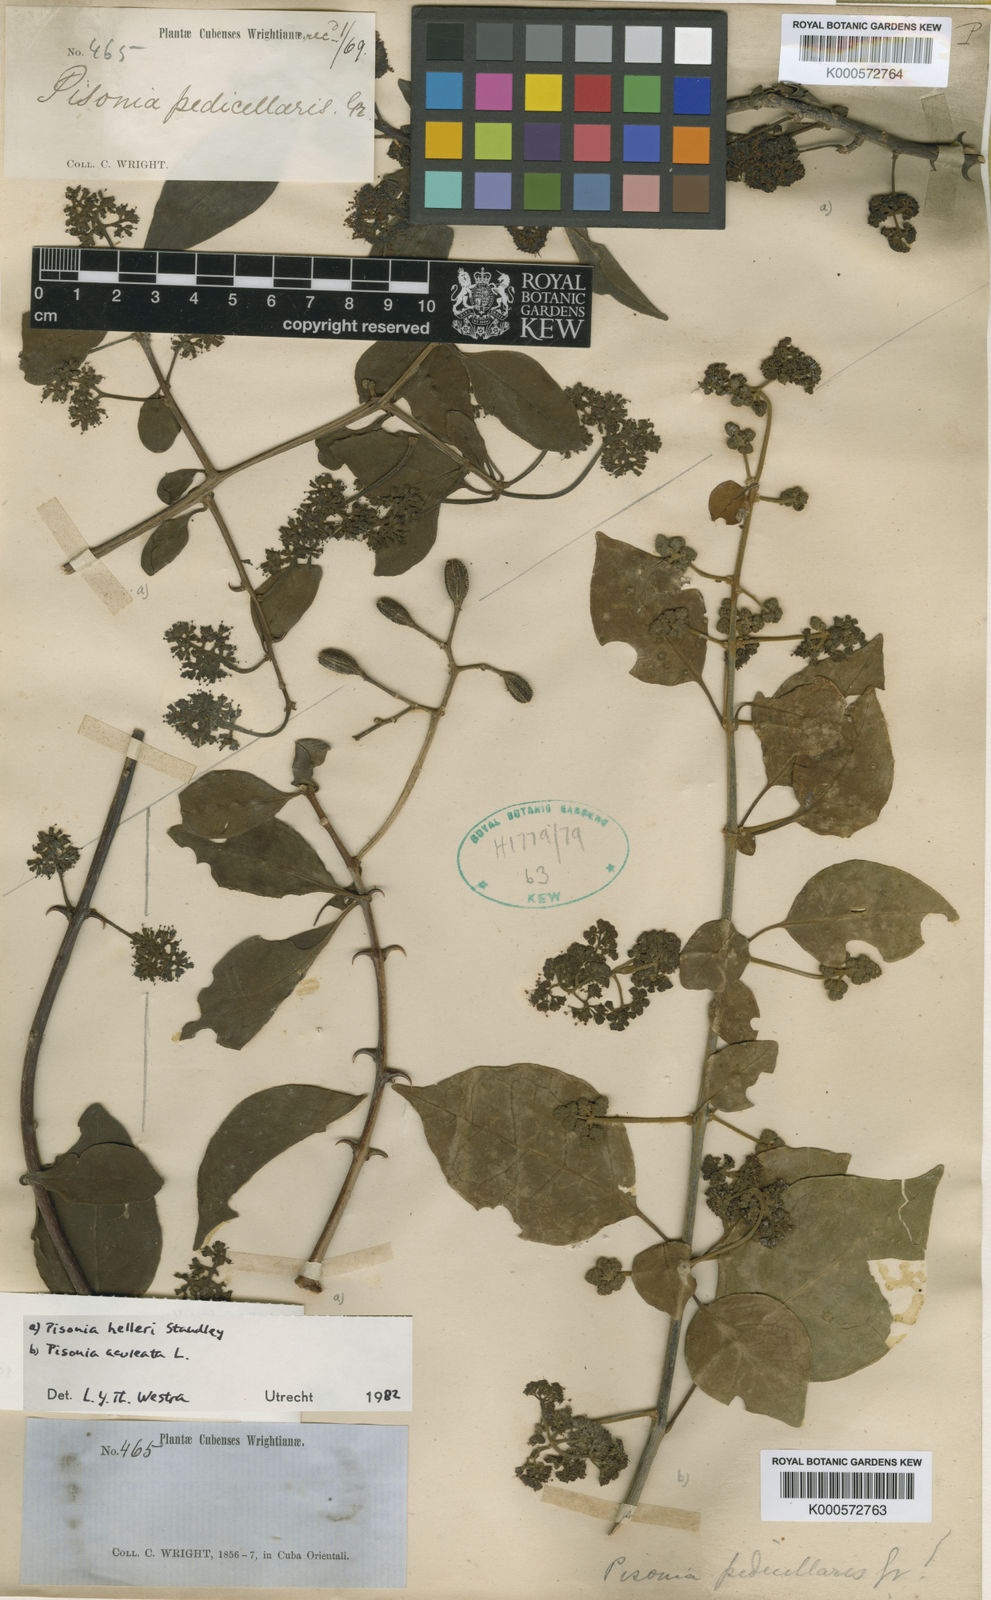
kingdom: Plantae
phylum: Tracheophyta
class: Magnoliopsida
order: Caryophyllales
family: Nyctaginaceae
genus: Pisonia
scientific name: Pisonia aculeata
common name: Cockspur vine
